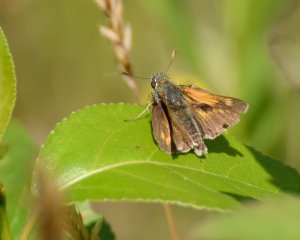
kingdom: Animalia
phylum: Arthropoda
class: Insecta
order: Lepidoptera
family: Hesperiidae
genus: Polites
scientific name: Polites
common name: Long Dash Skipper
